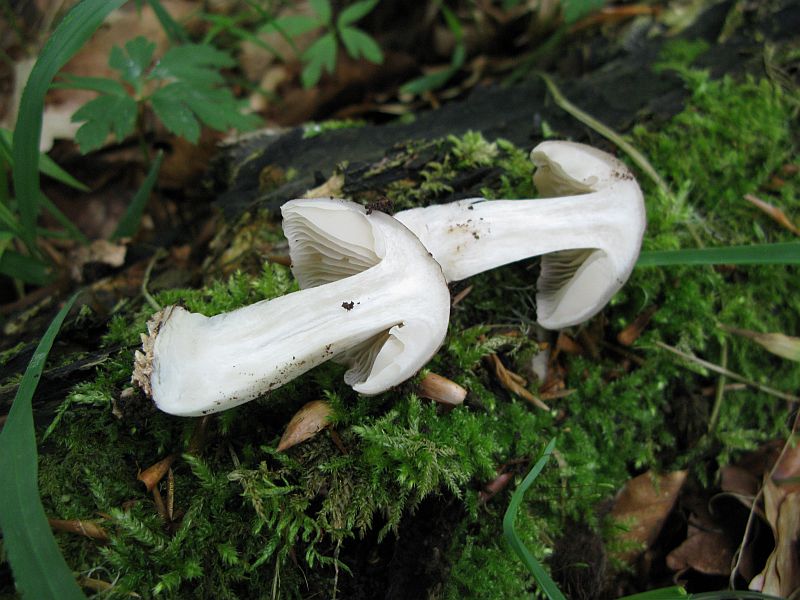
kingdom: Fungi
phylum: Basidiomycota
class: Agaricomycetes
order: Agaricales
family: Tricholomataceae
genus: Megacollybia
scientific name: Megacollybia platyphylla
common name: bredbladet væbnerhat
